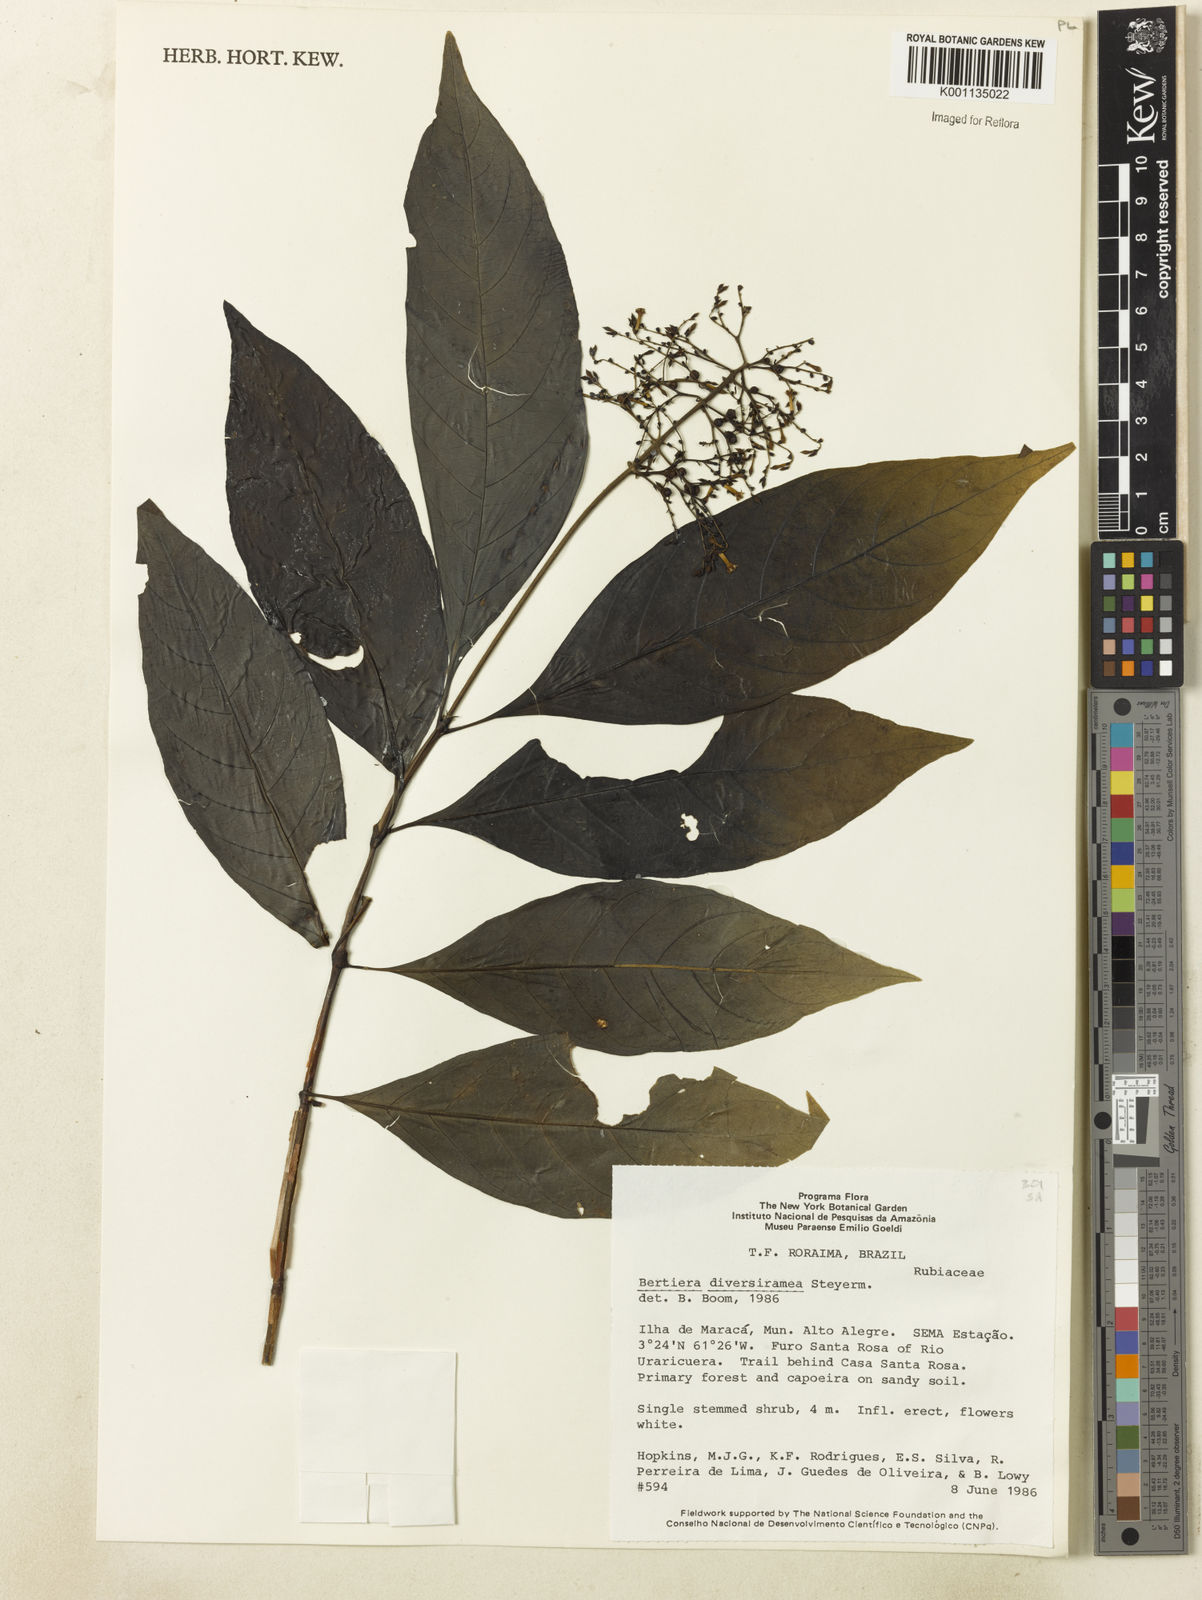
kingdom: Plantae
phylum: Tracheophyta
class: Magnoliopsida
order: Gentianales
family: Rubiaceae
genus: Bertiera
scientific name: Bertiera guianensis
